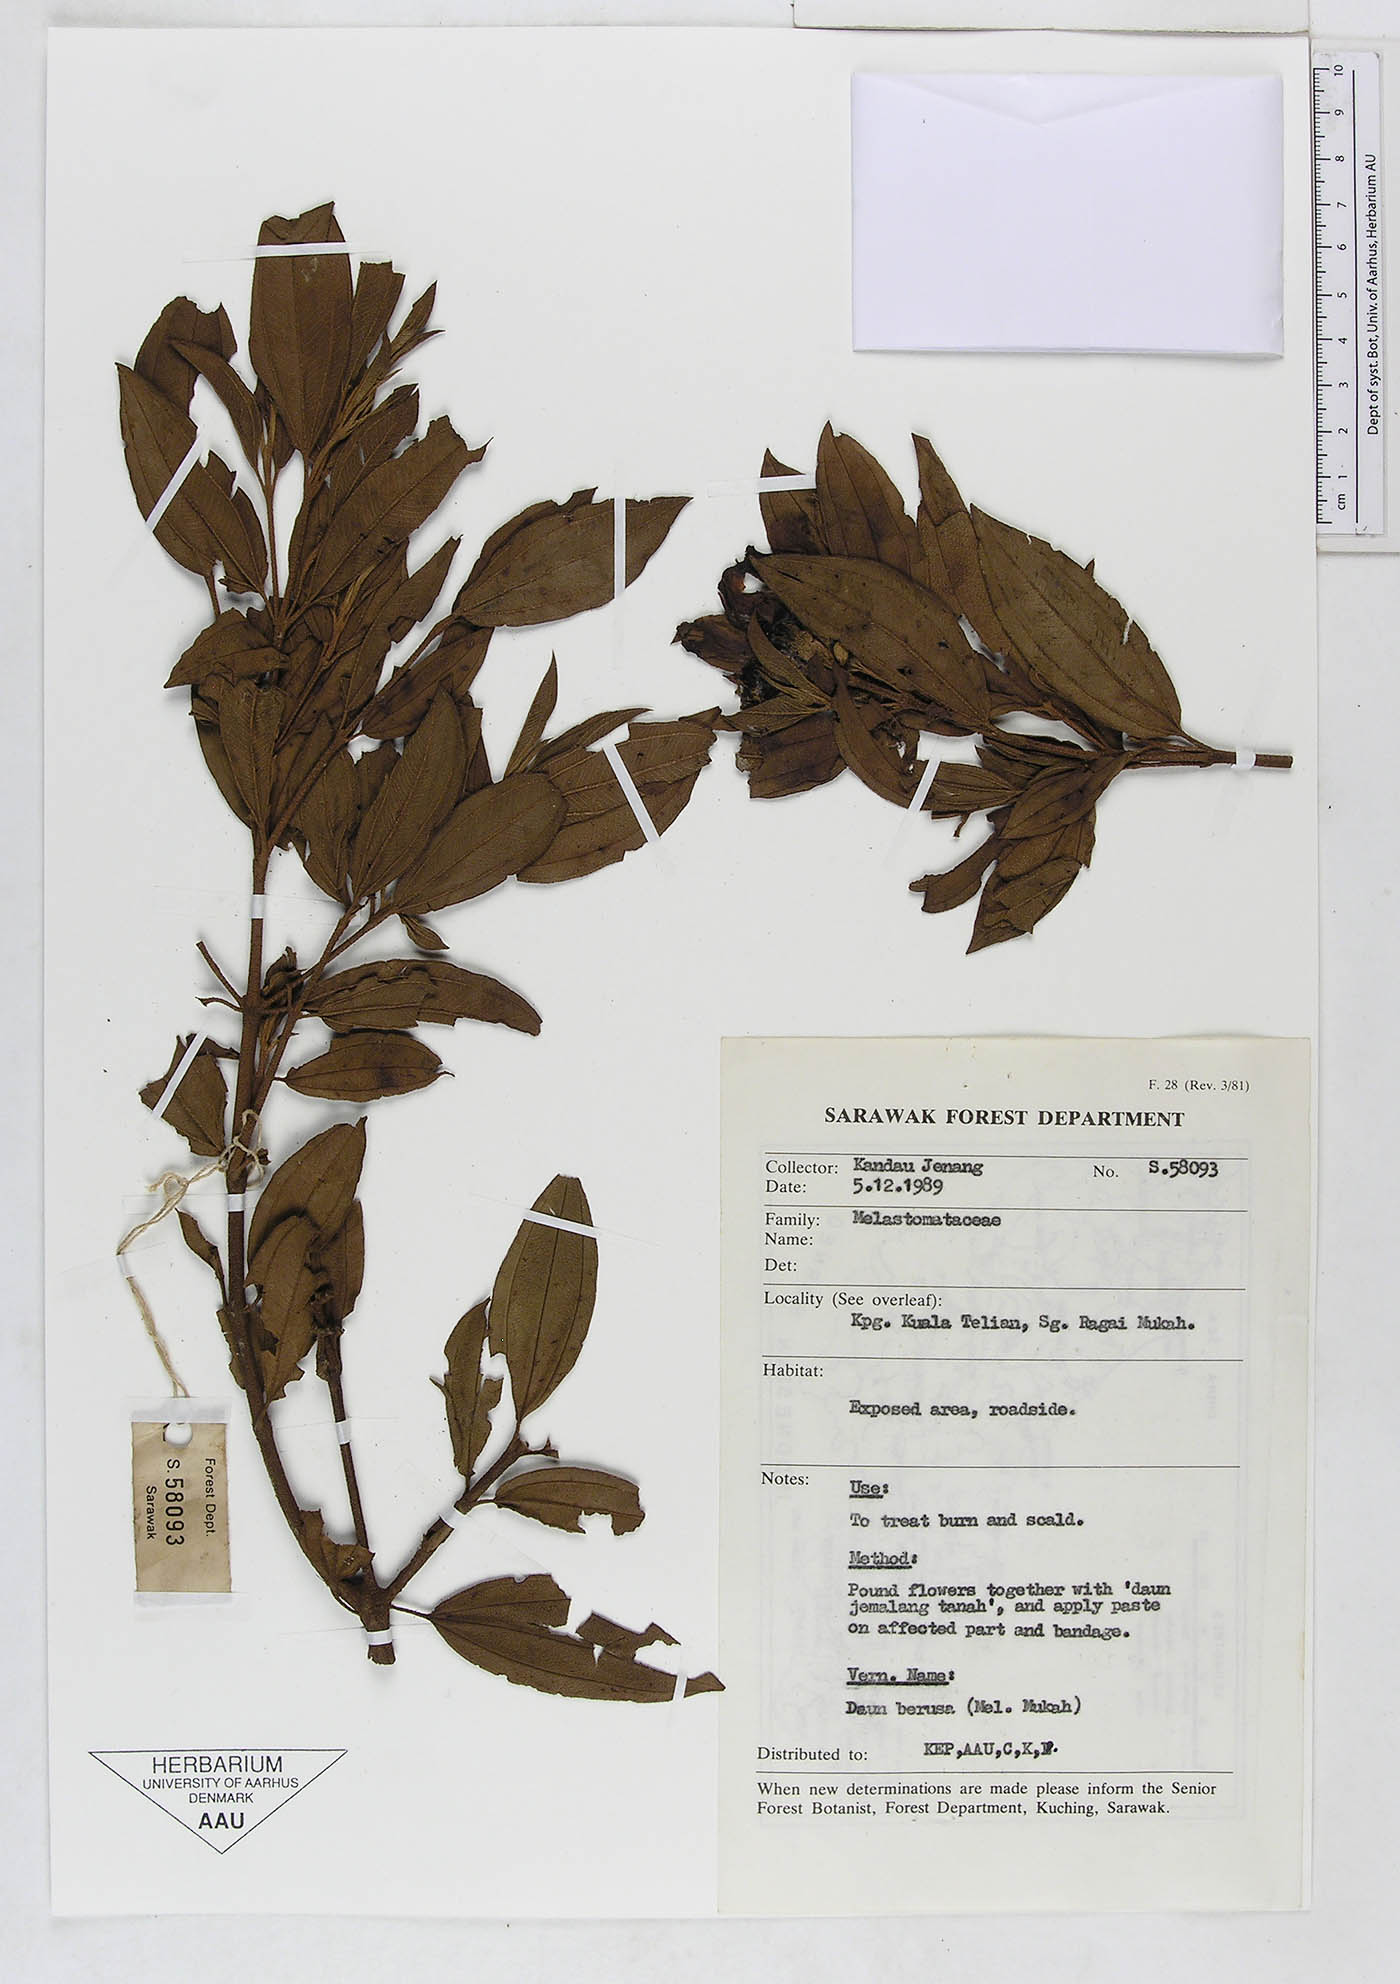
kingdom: Plantae
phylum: Tracheophyta
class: Magnoliopsida
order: Myrtales
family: Melastomataceae
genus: Melastoma
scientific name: Melastoma
